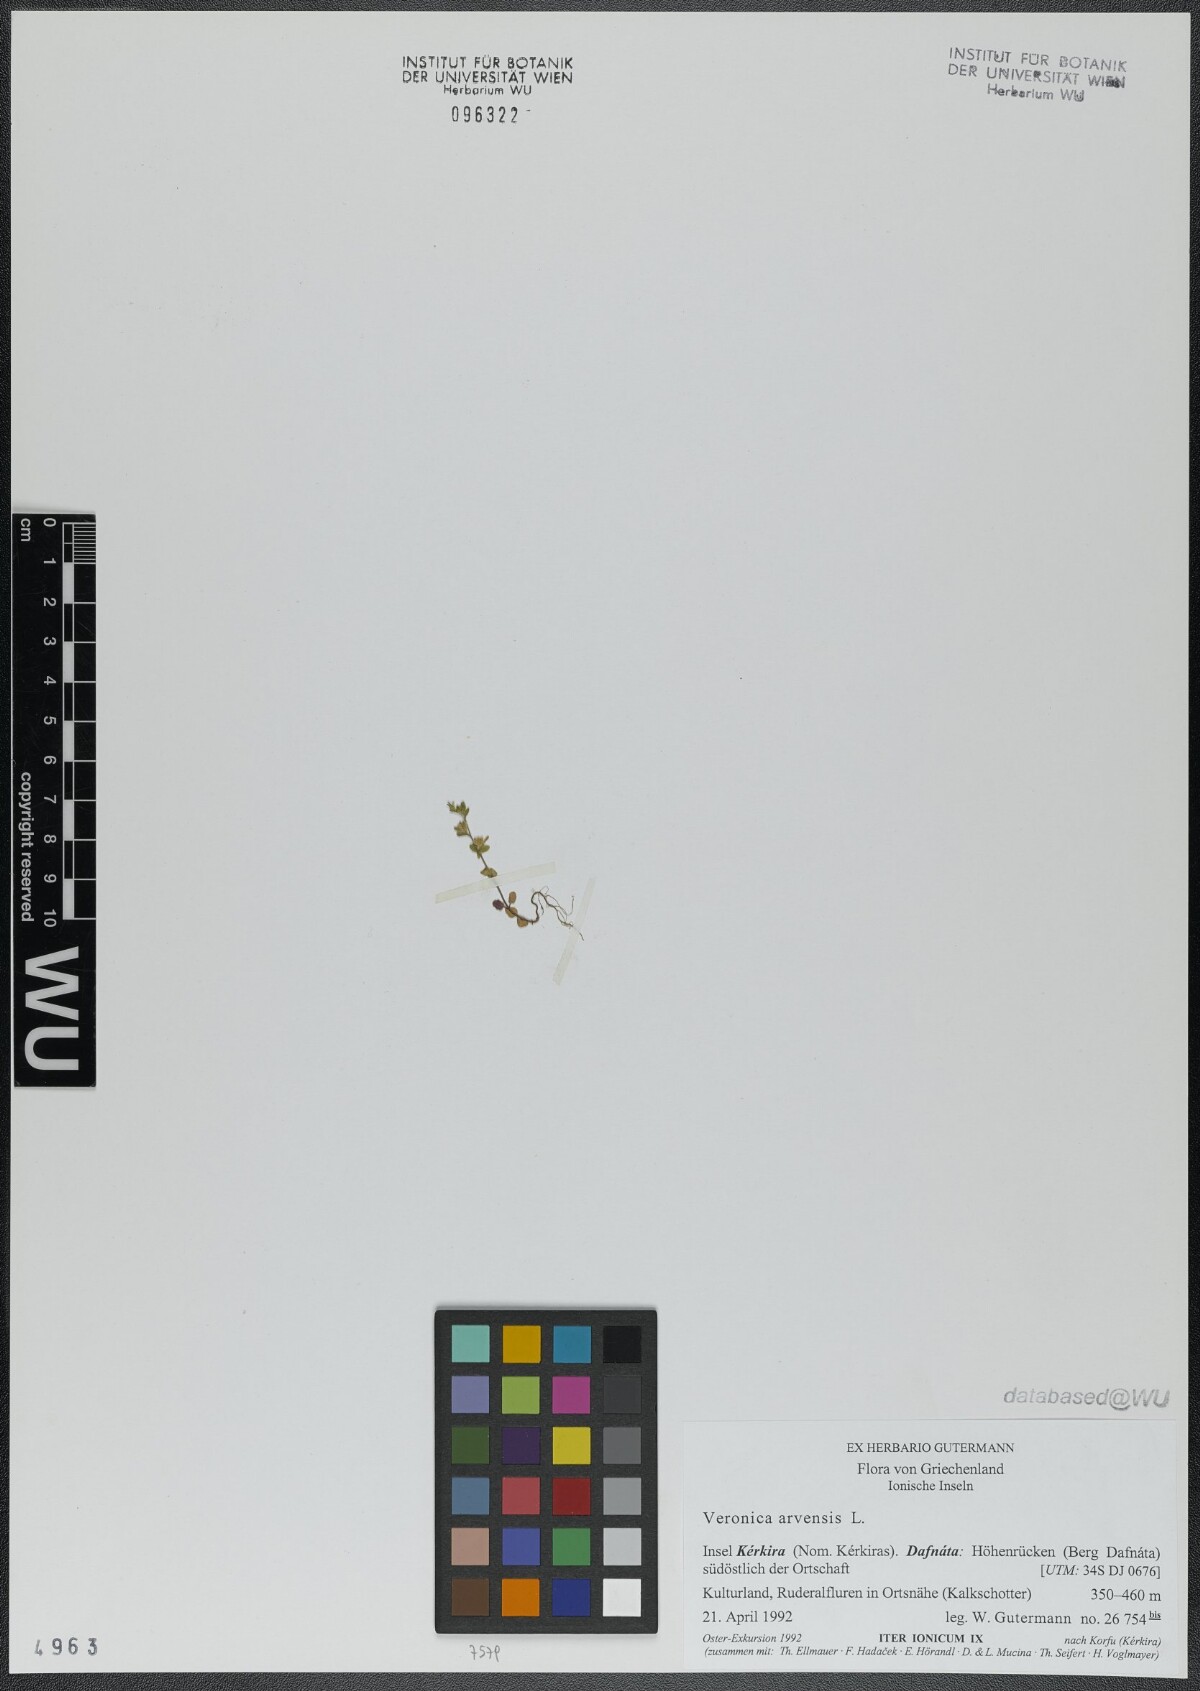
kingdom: Plantae
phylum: Tracheophyta
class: Magnoliopsida
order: Lamiales
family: Plantaginaceae
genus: Veronica
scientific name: Veronica arvensis
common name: Corn speedwell
